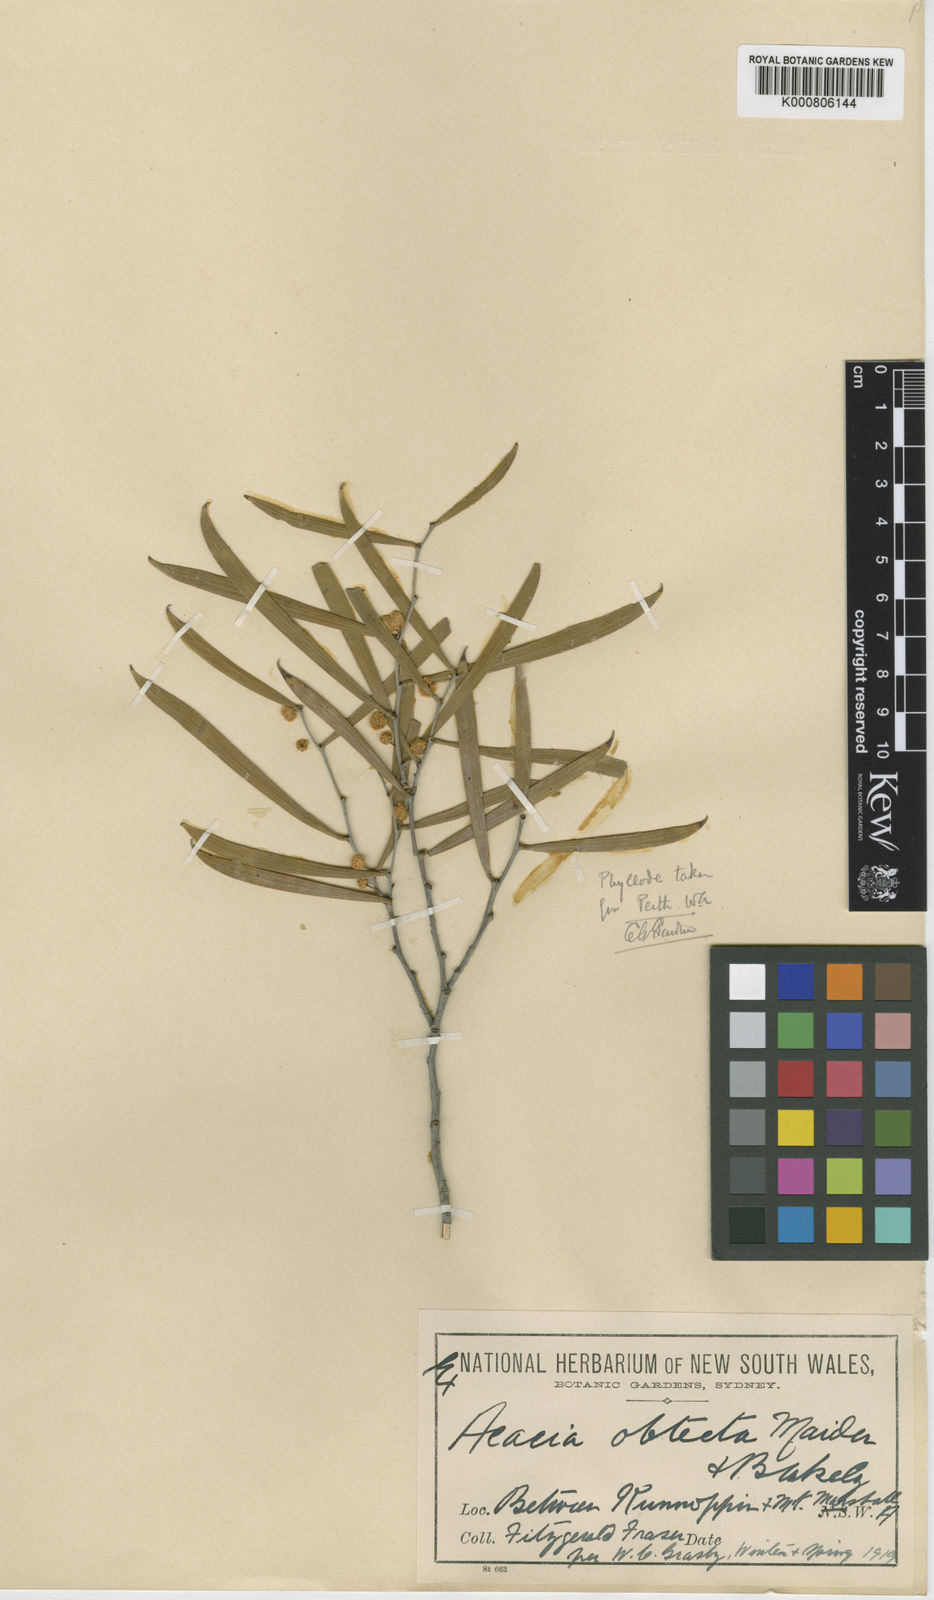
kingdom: Plantae
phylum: Tracheophyta
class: Magnoliopsida
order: Fabales
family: Fabaceae
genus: Acacia
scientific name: Acacia obtecta
